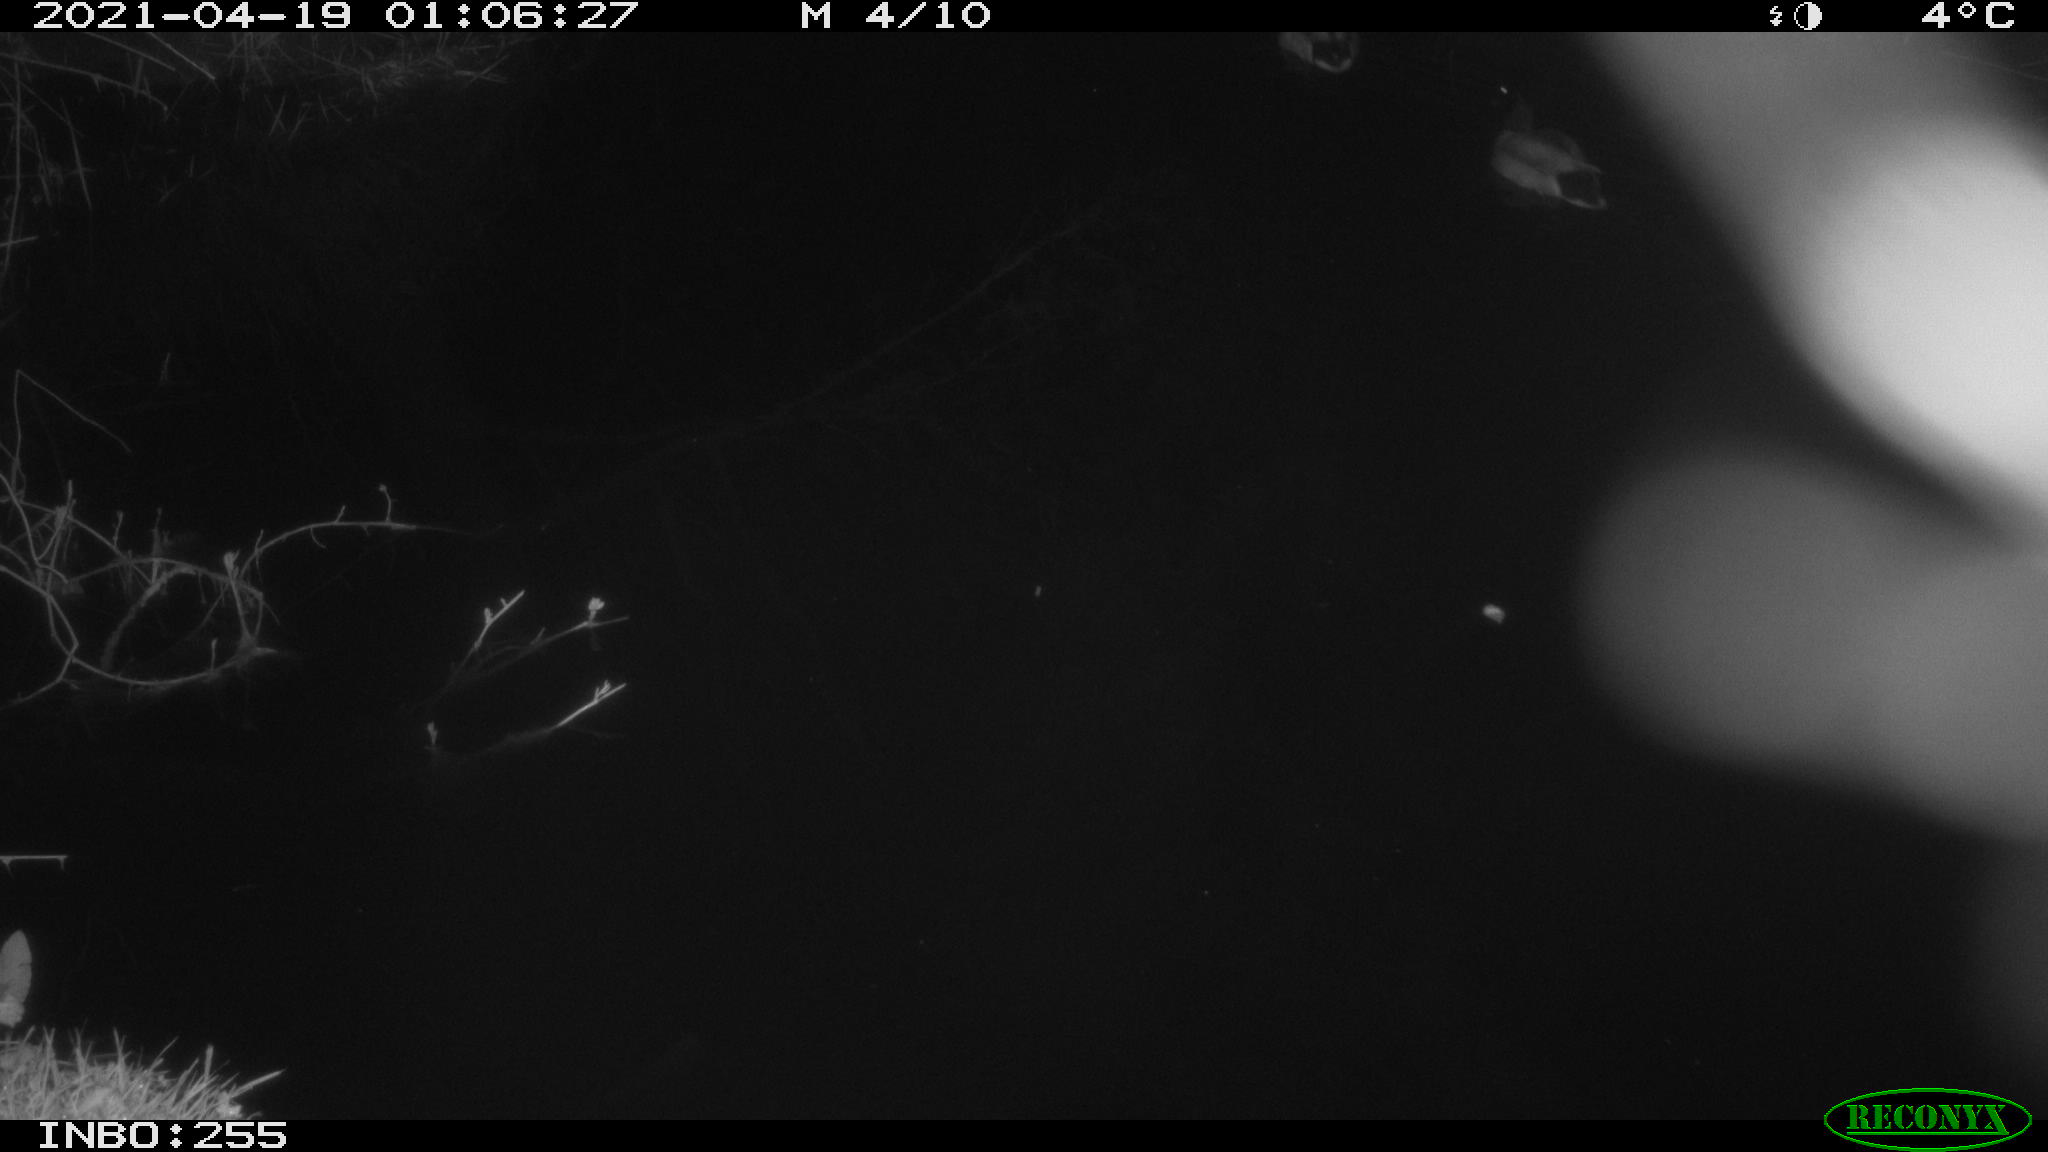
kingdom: Animalia
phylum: Chordata
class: Aves
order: Anseriformes
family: Anatidae
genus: Anas
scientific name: Anas platyrhynchos
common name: Mallard
